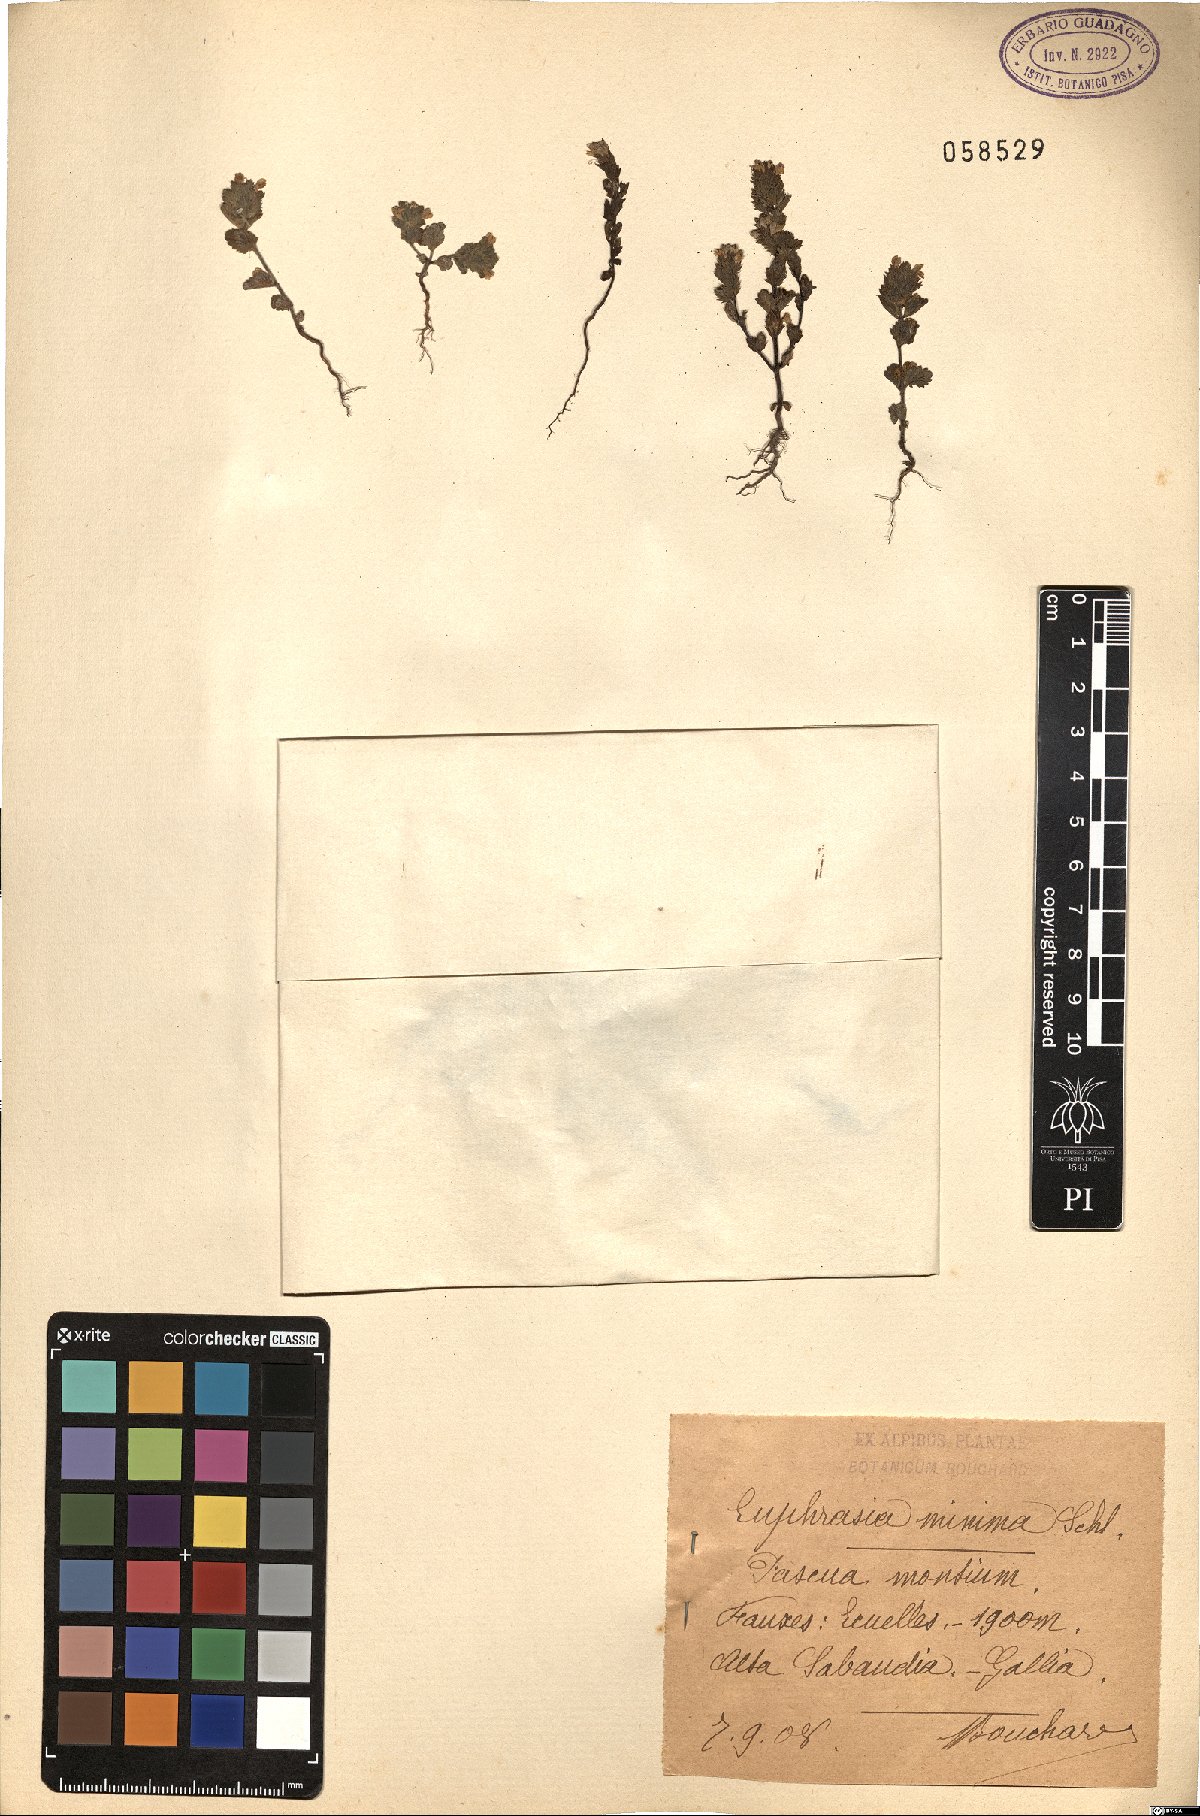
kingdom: Plantae
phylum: Tracheophyta
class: Magnoliopsida
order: Lamiales
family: Orobanchaceae
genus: Euphrasia
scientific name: Euphrasia minima
